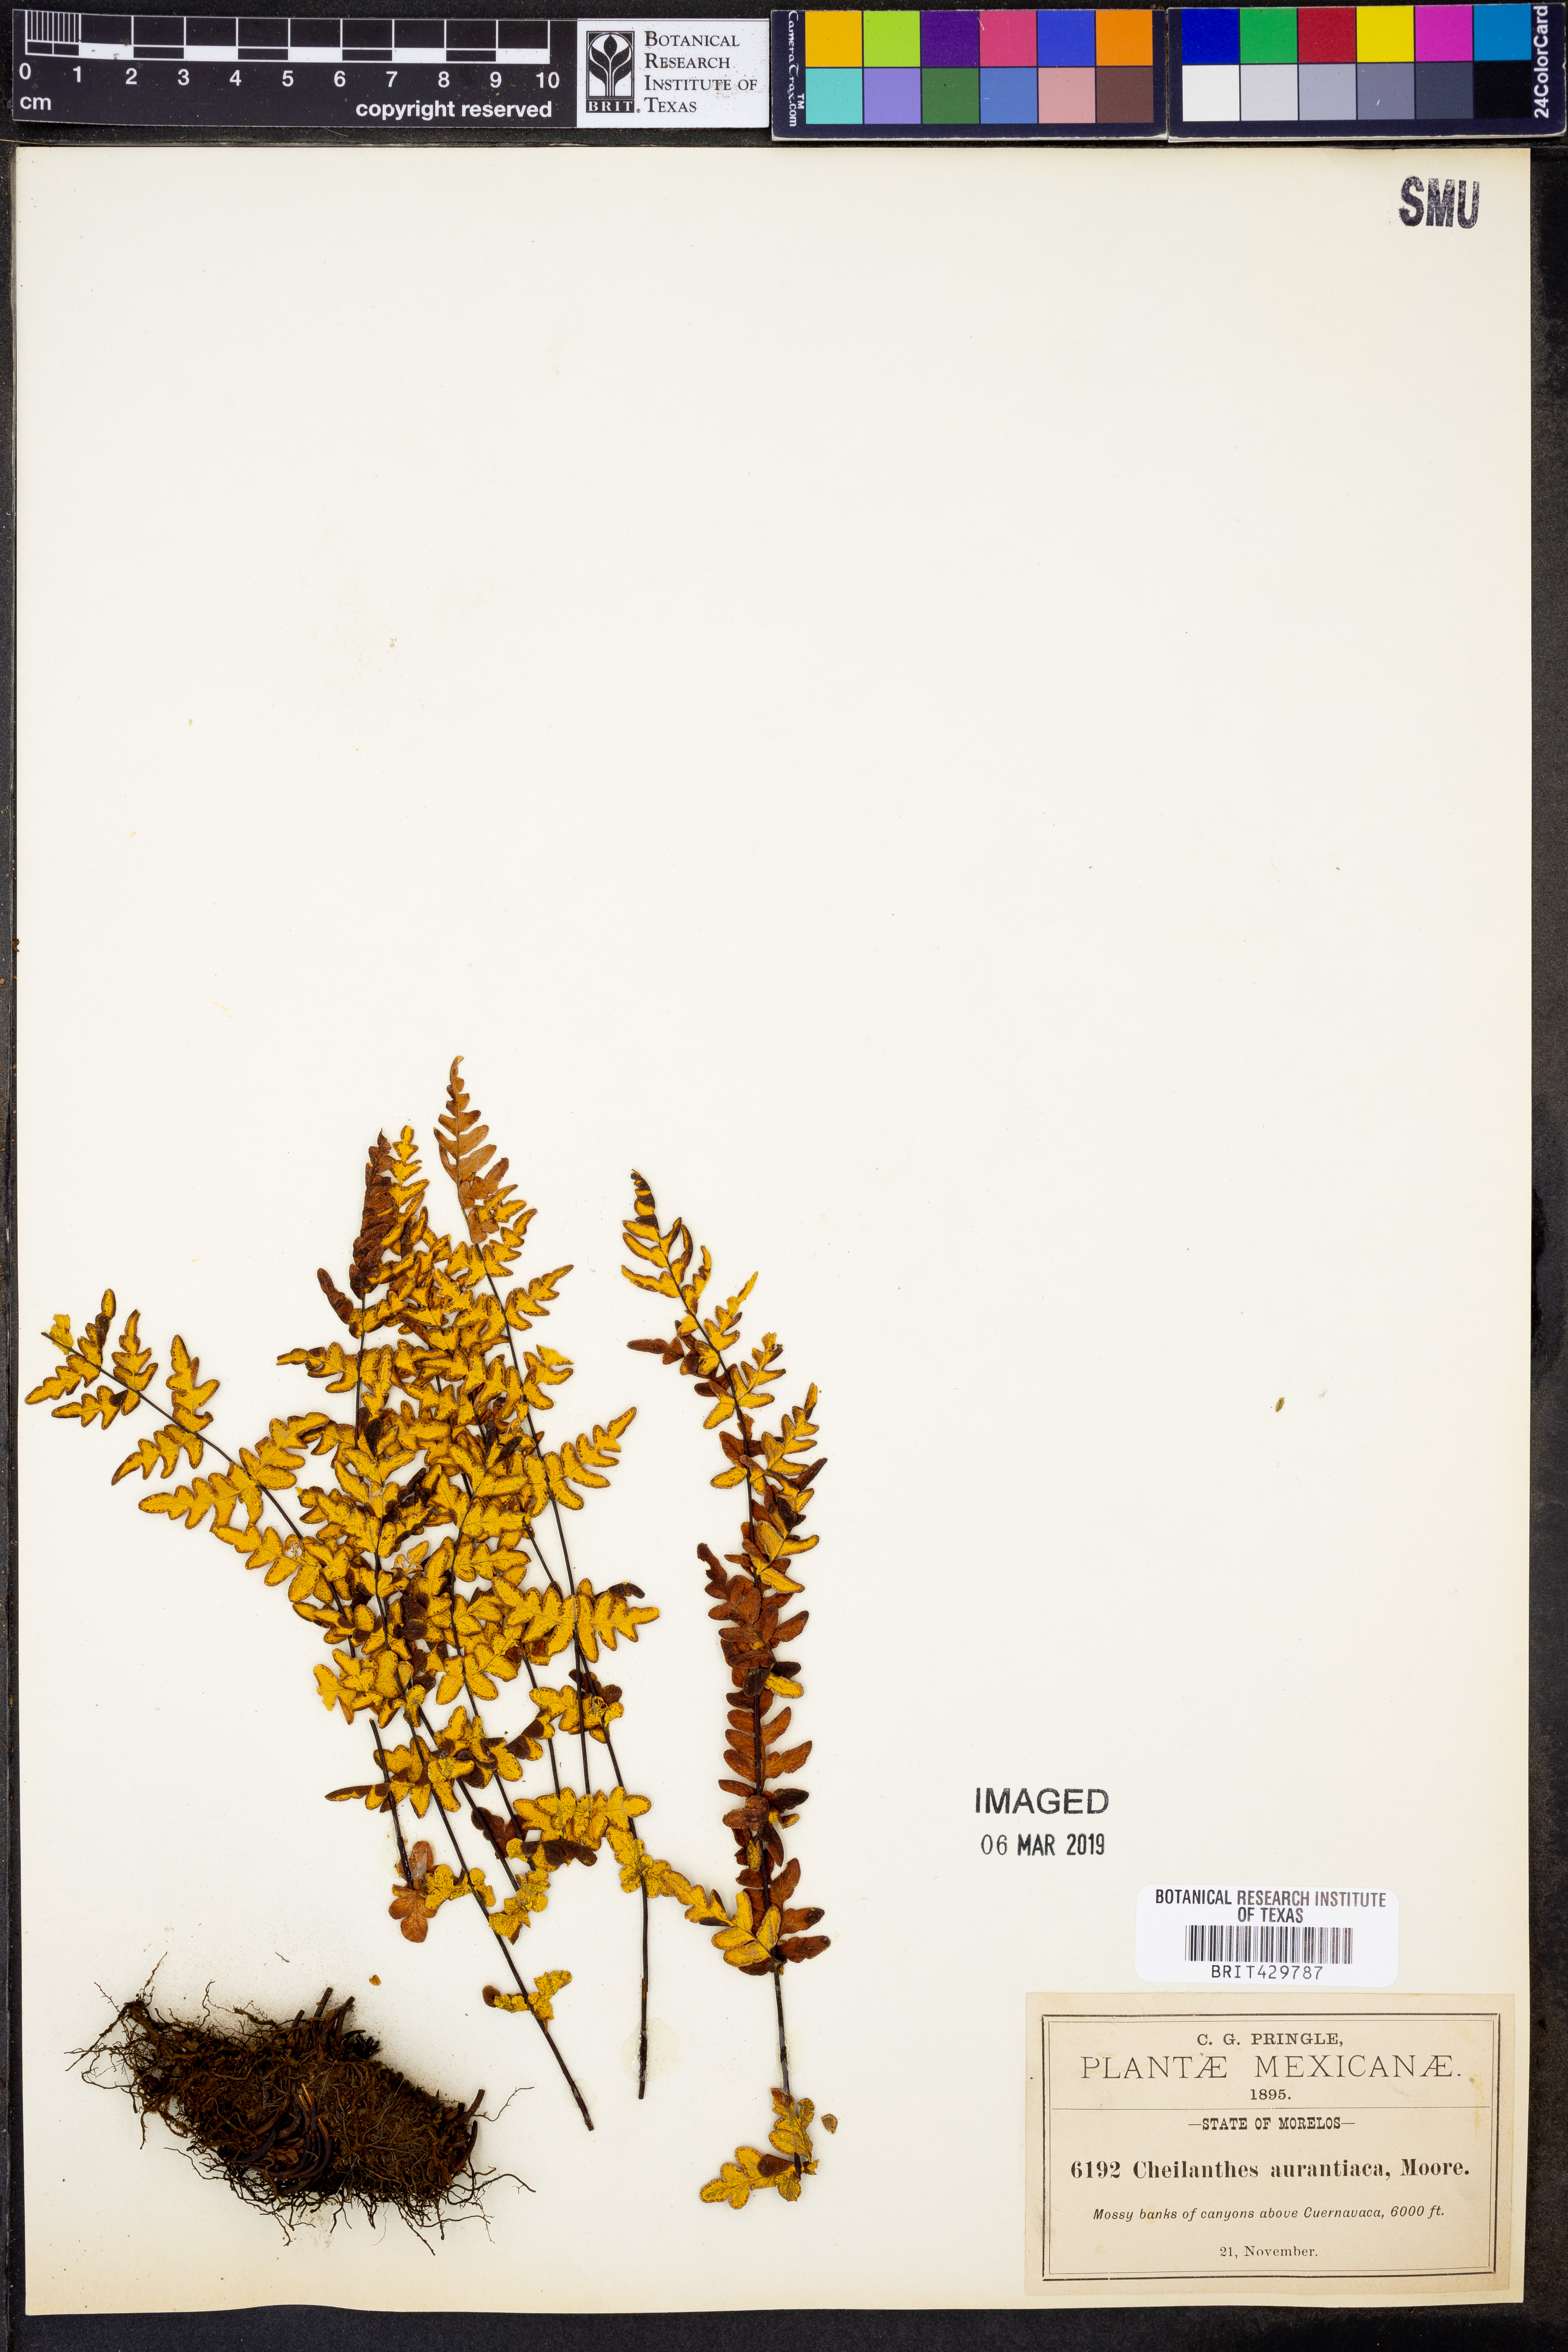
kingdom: Plantae
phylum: Tracheophyta
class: Polypodiopsida
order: Polypodiales
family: Pteridaceae
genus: Notholaena
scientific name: Notholaena ochracea
